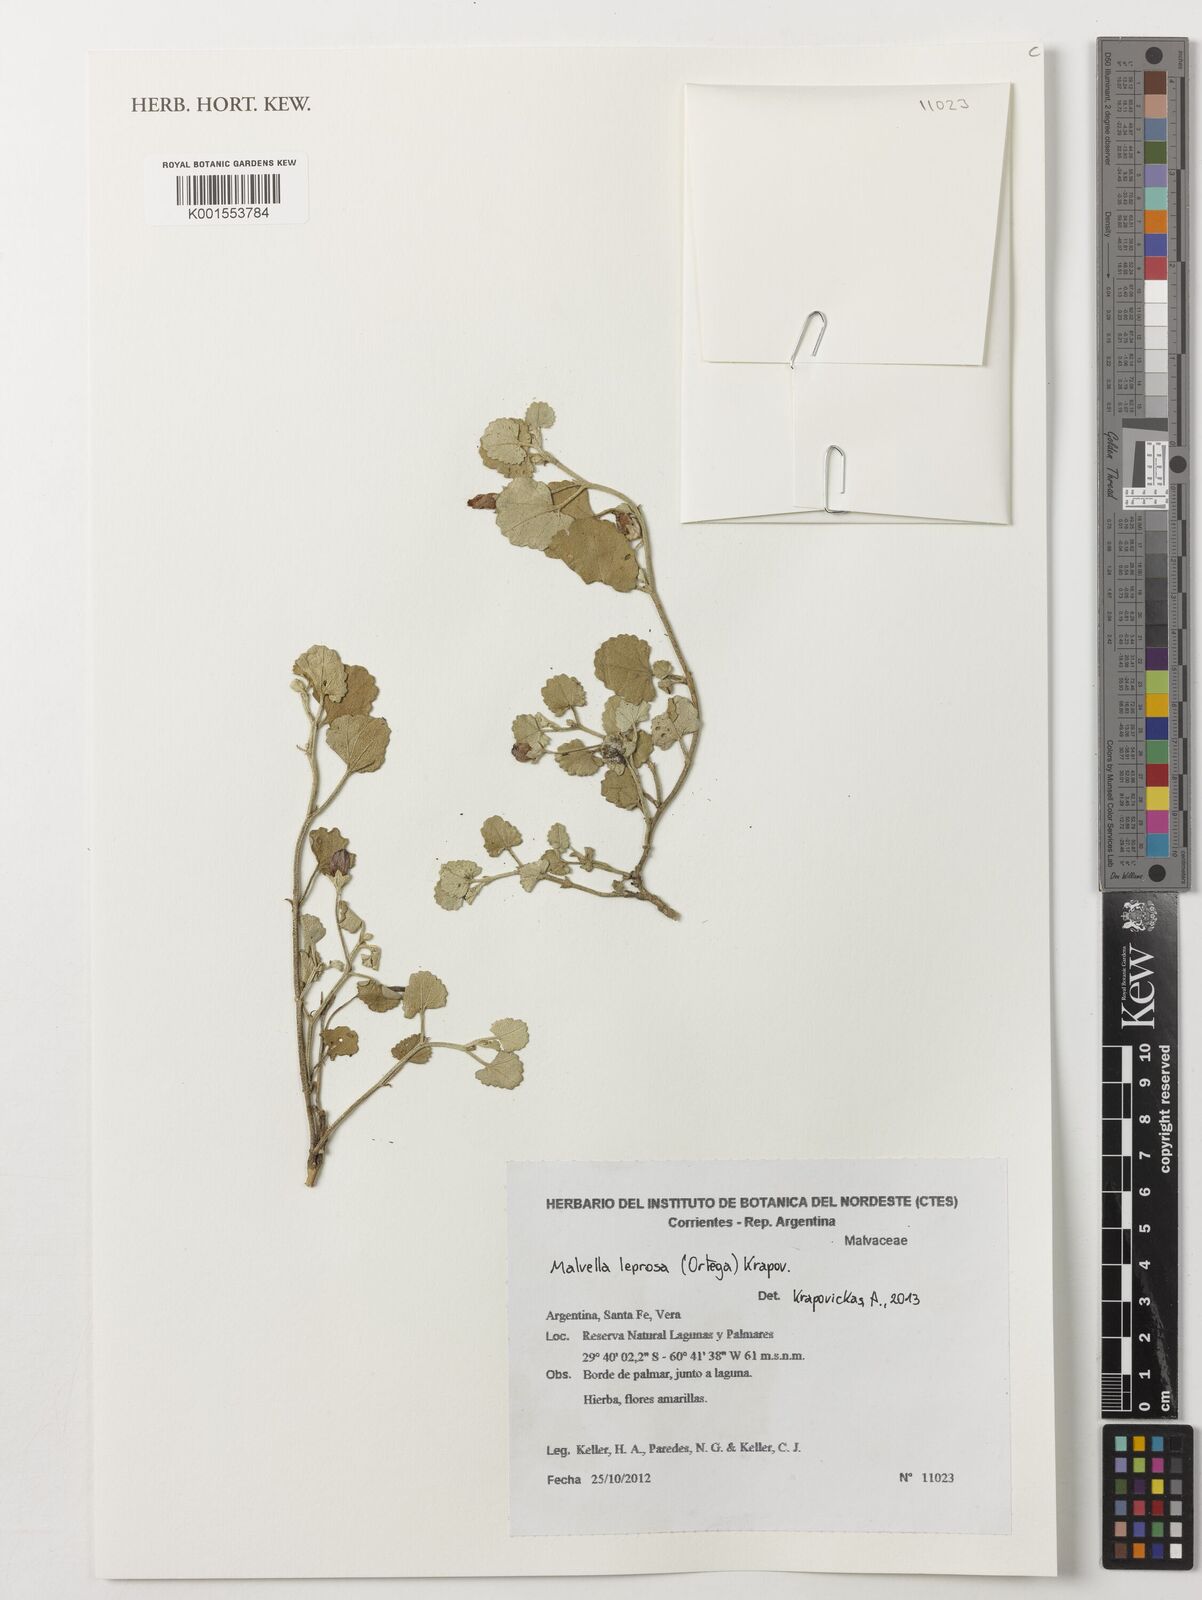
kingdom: Plantae
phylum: Tracheophyta
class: Magnoliopsida
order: Malvales
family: Malvaceae
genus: Malvella
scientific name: Malvella leprosa
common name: Alkali-mallow
